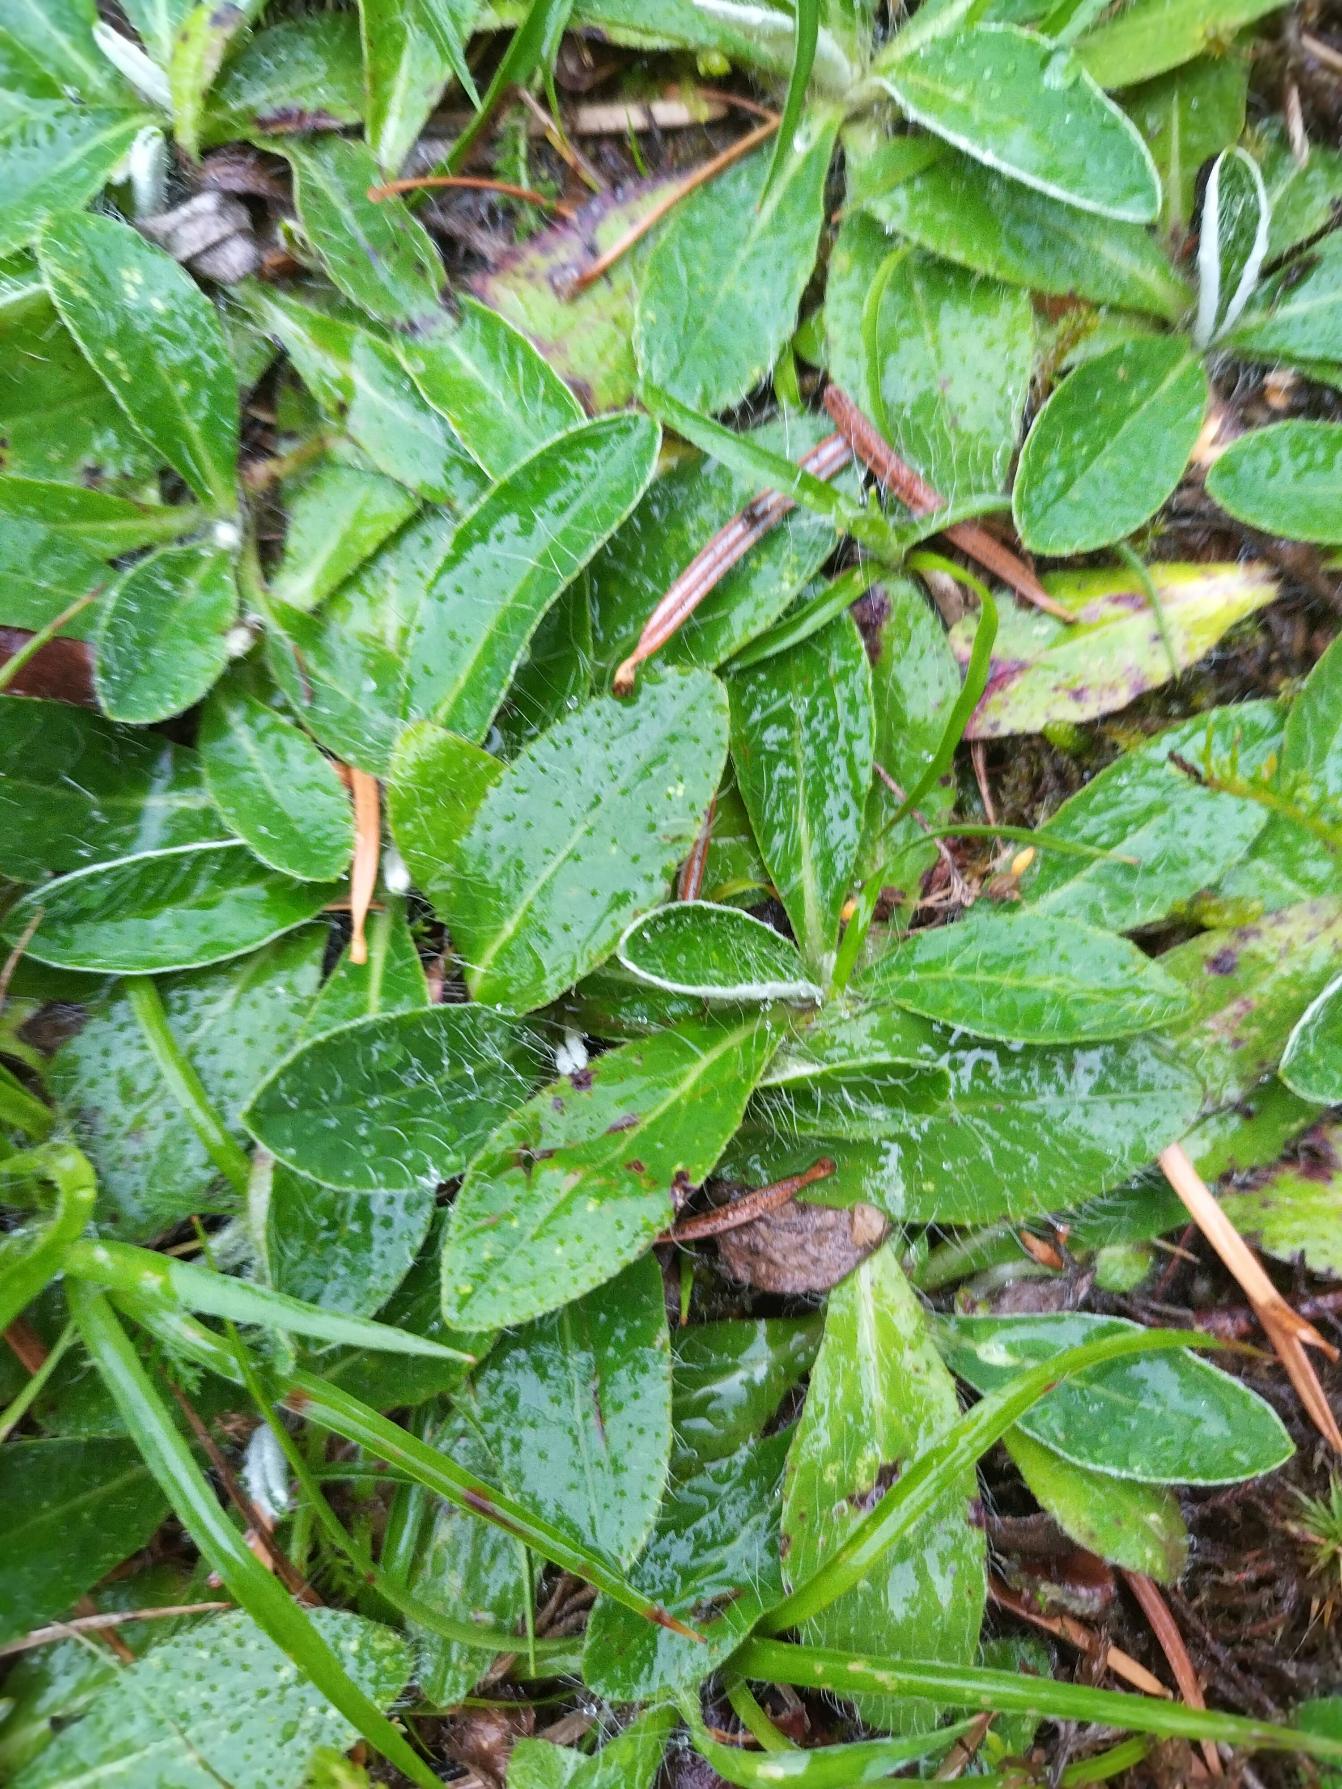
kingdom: Plantae
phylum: Tracheophyta
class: Magnoliopsida
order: Asterales
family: Asteraceae
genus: Pilosella
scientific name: Pilosella officinarum
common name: Håret høgeurt
